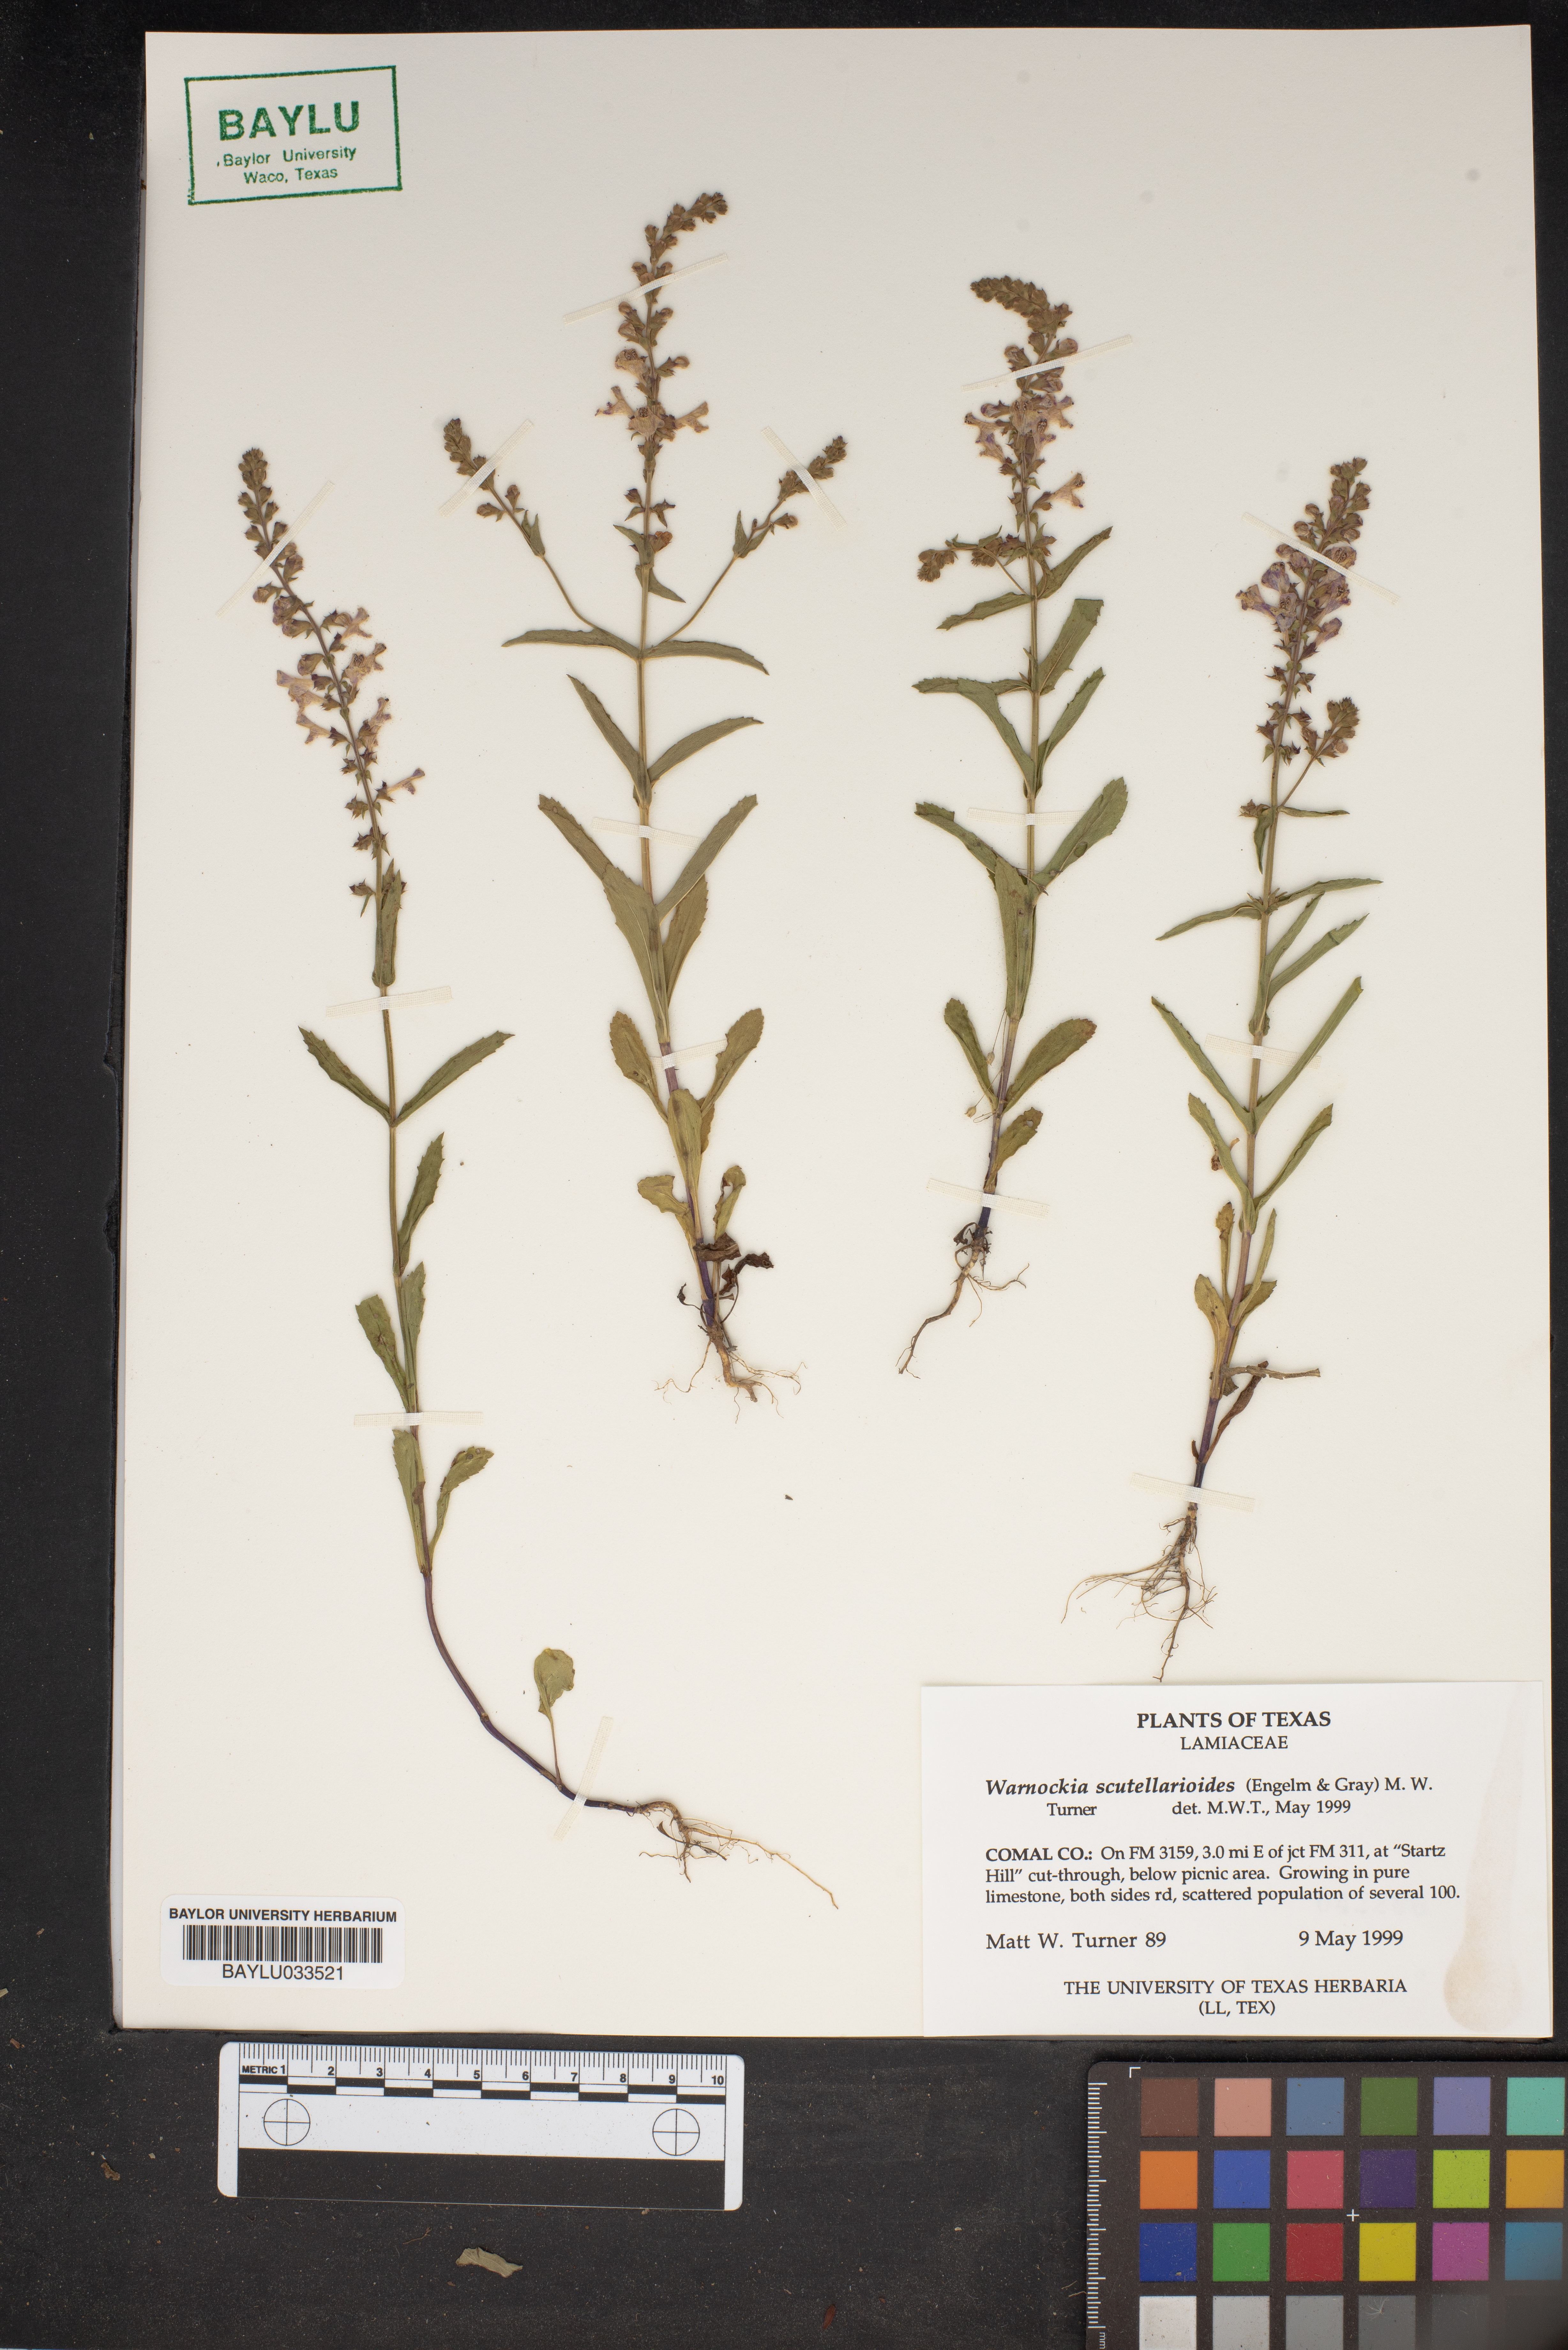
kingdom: Plantae
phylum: Tracheophyta
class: Magnoliopsida
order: Lamiales
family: Lamiaceae
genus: Warnockia
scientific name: Warnockia scutellarioides
